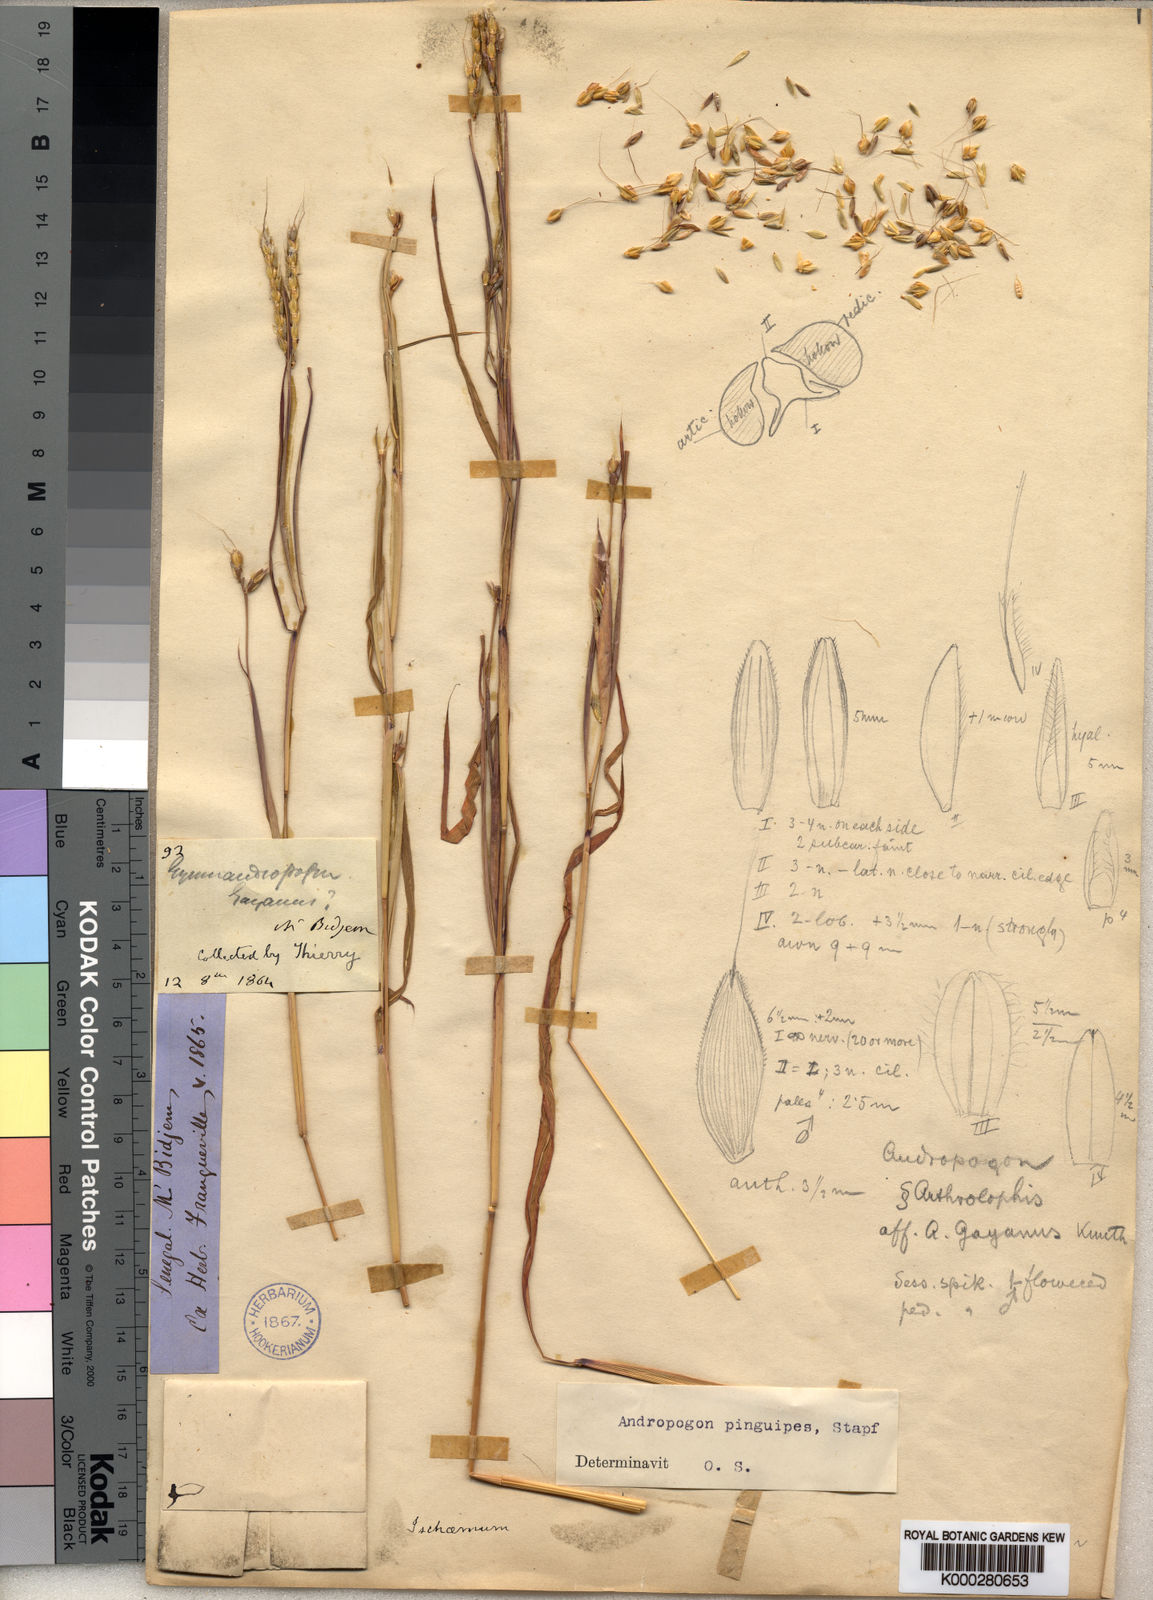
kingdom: Plantae
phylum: Tracheophyta
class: Liliopsida
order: Poales
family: Poaceae
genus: Andropogon
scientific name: Andropogon pinguipes
